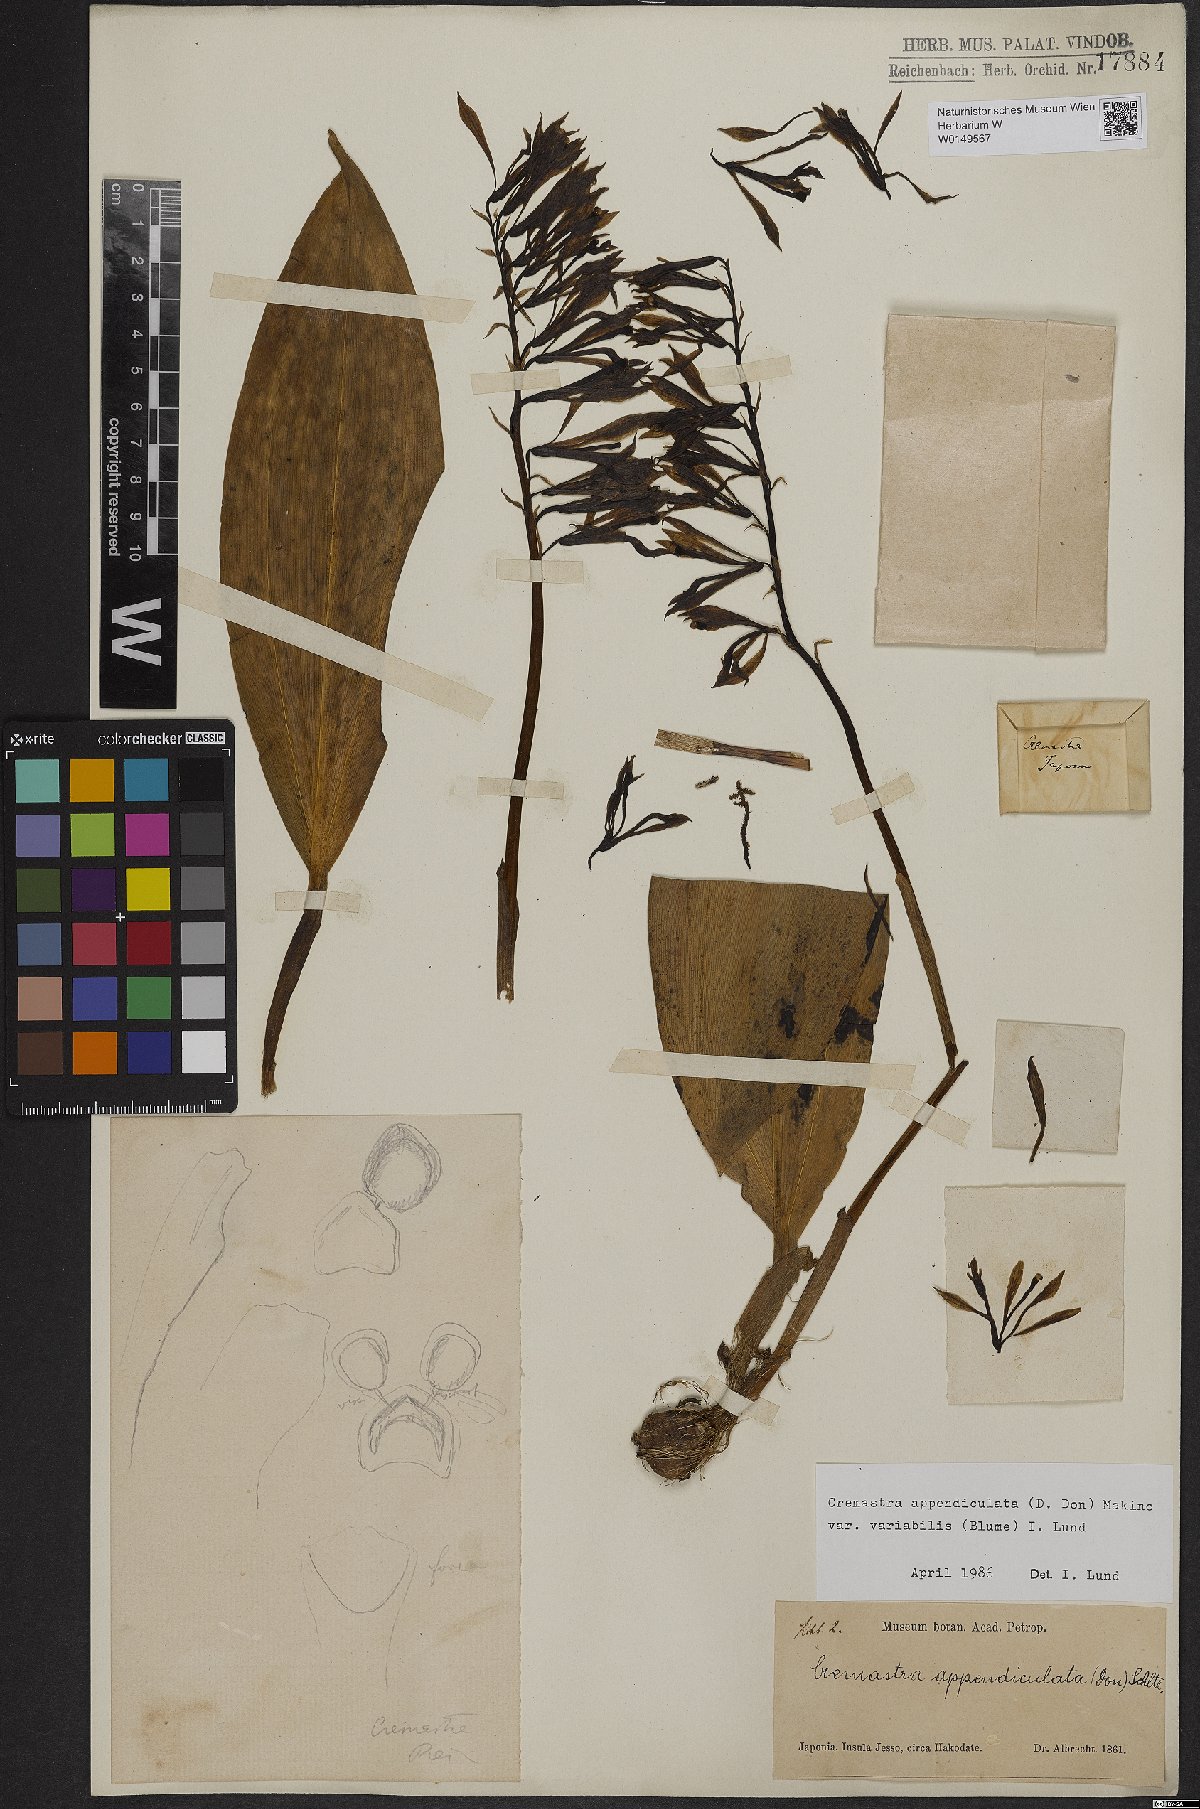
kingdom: Plantae
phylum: Tracheophyta
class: Liliopsida
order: Asparagales
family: Orchidaceae
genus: Cremastra
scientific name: Cremastra appendiculata
